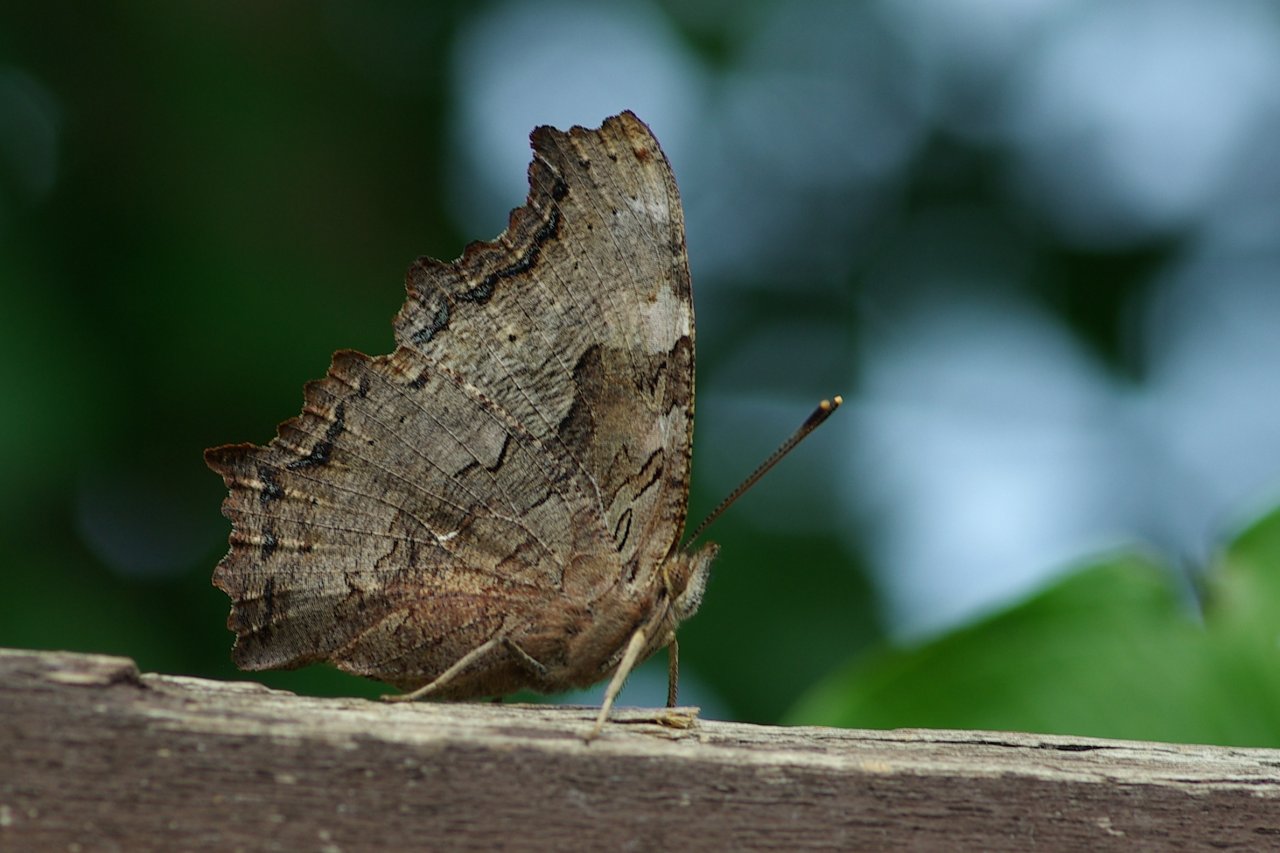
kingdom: Animalia
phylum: Arthropoda
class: Insecta
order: Lepidoptera
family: Nymphalidae
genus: Polygonia
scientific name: Polygonia vaualbum
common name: Compton Tortoiseshell
